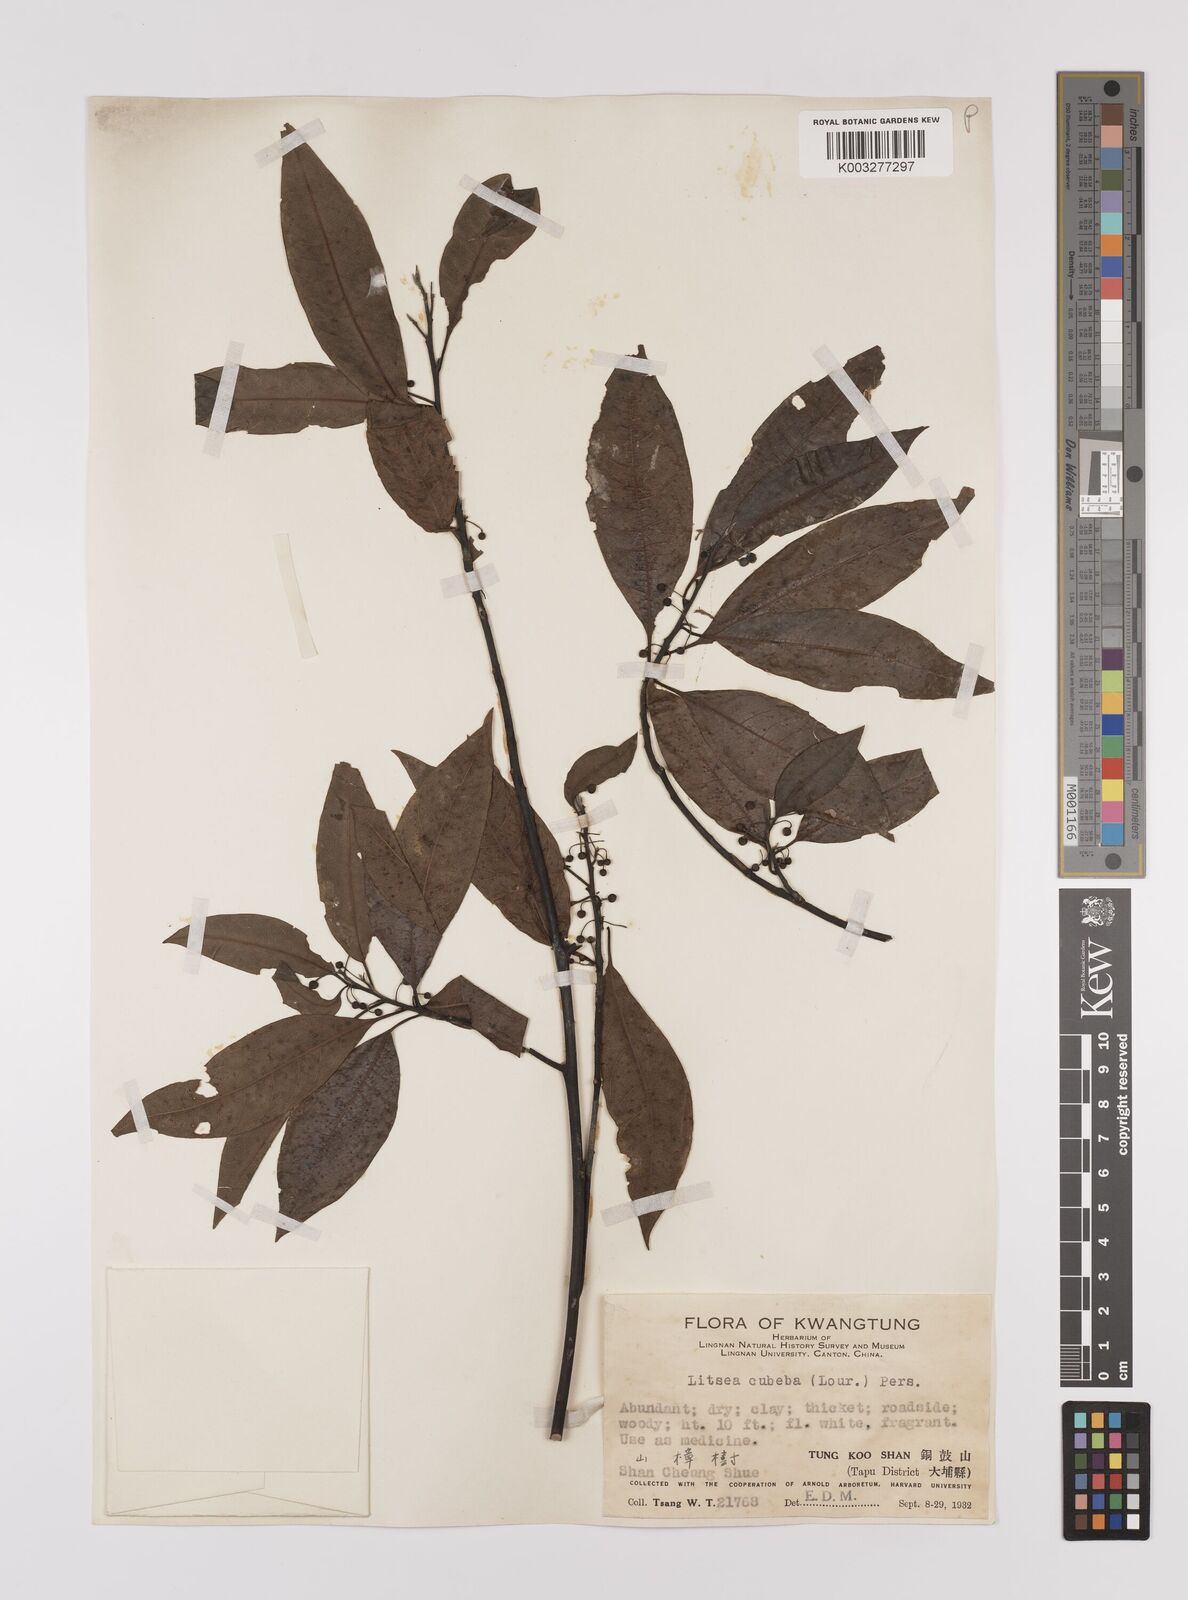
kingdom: Plantae
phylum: Tracheophyta
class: Magnoliopsida
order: Laurales
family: Lauraceae
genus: Litsea
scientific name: Litsea cubeba
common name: Mountain-pepper
